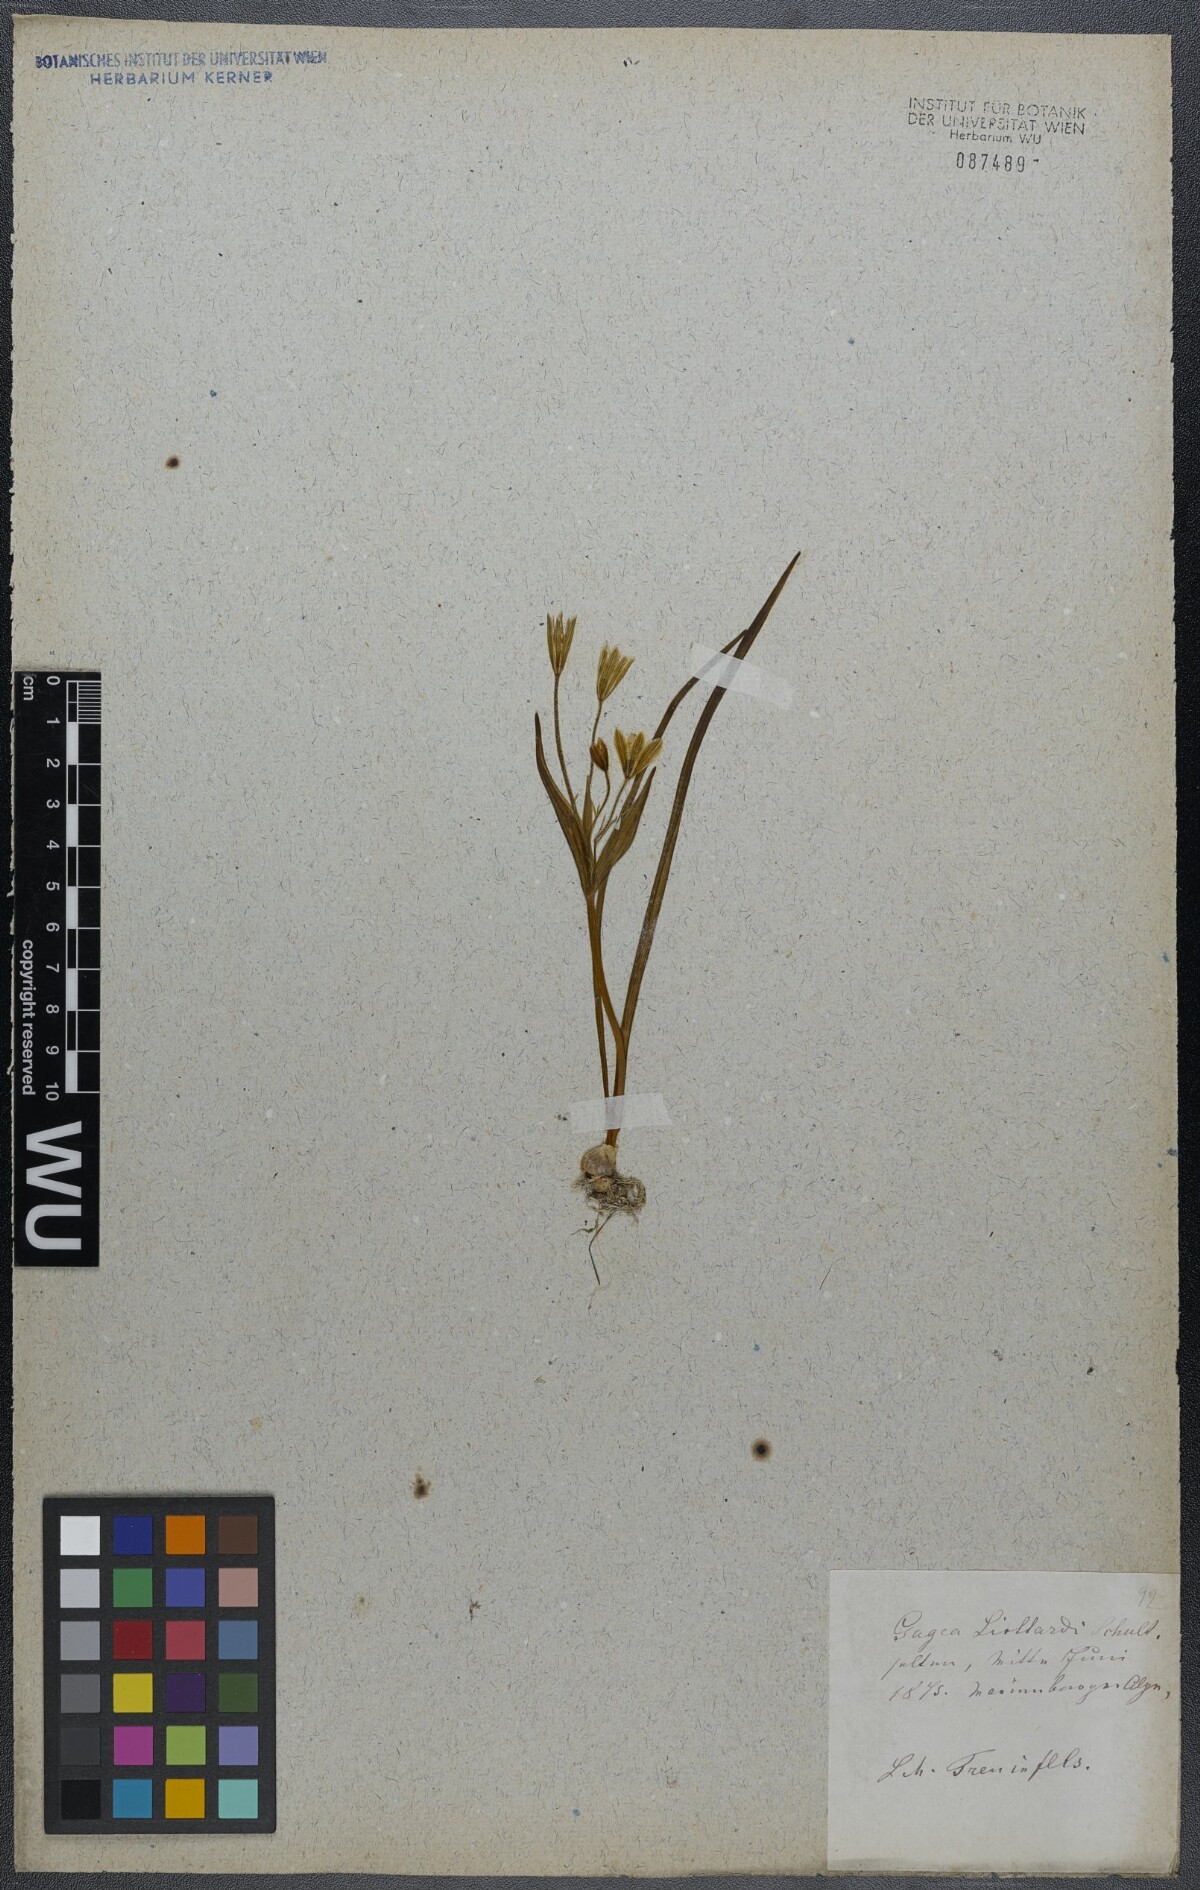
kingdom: Plantae
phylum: Tracheophyta
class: Liliopsida
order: Liliales
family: Liliaceae
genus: Gagea
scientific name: Gagea fragifera
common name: Lily
